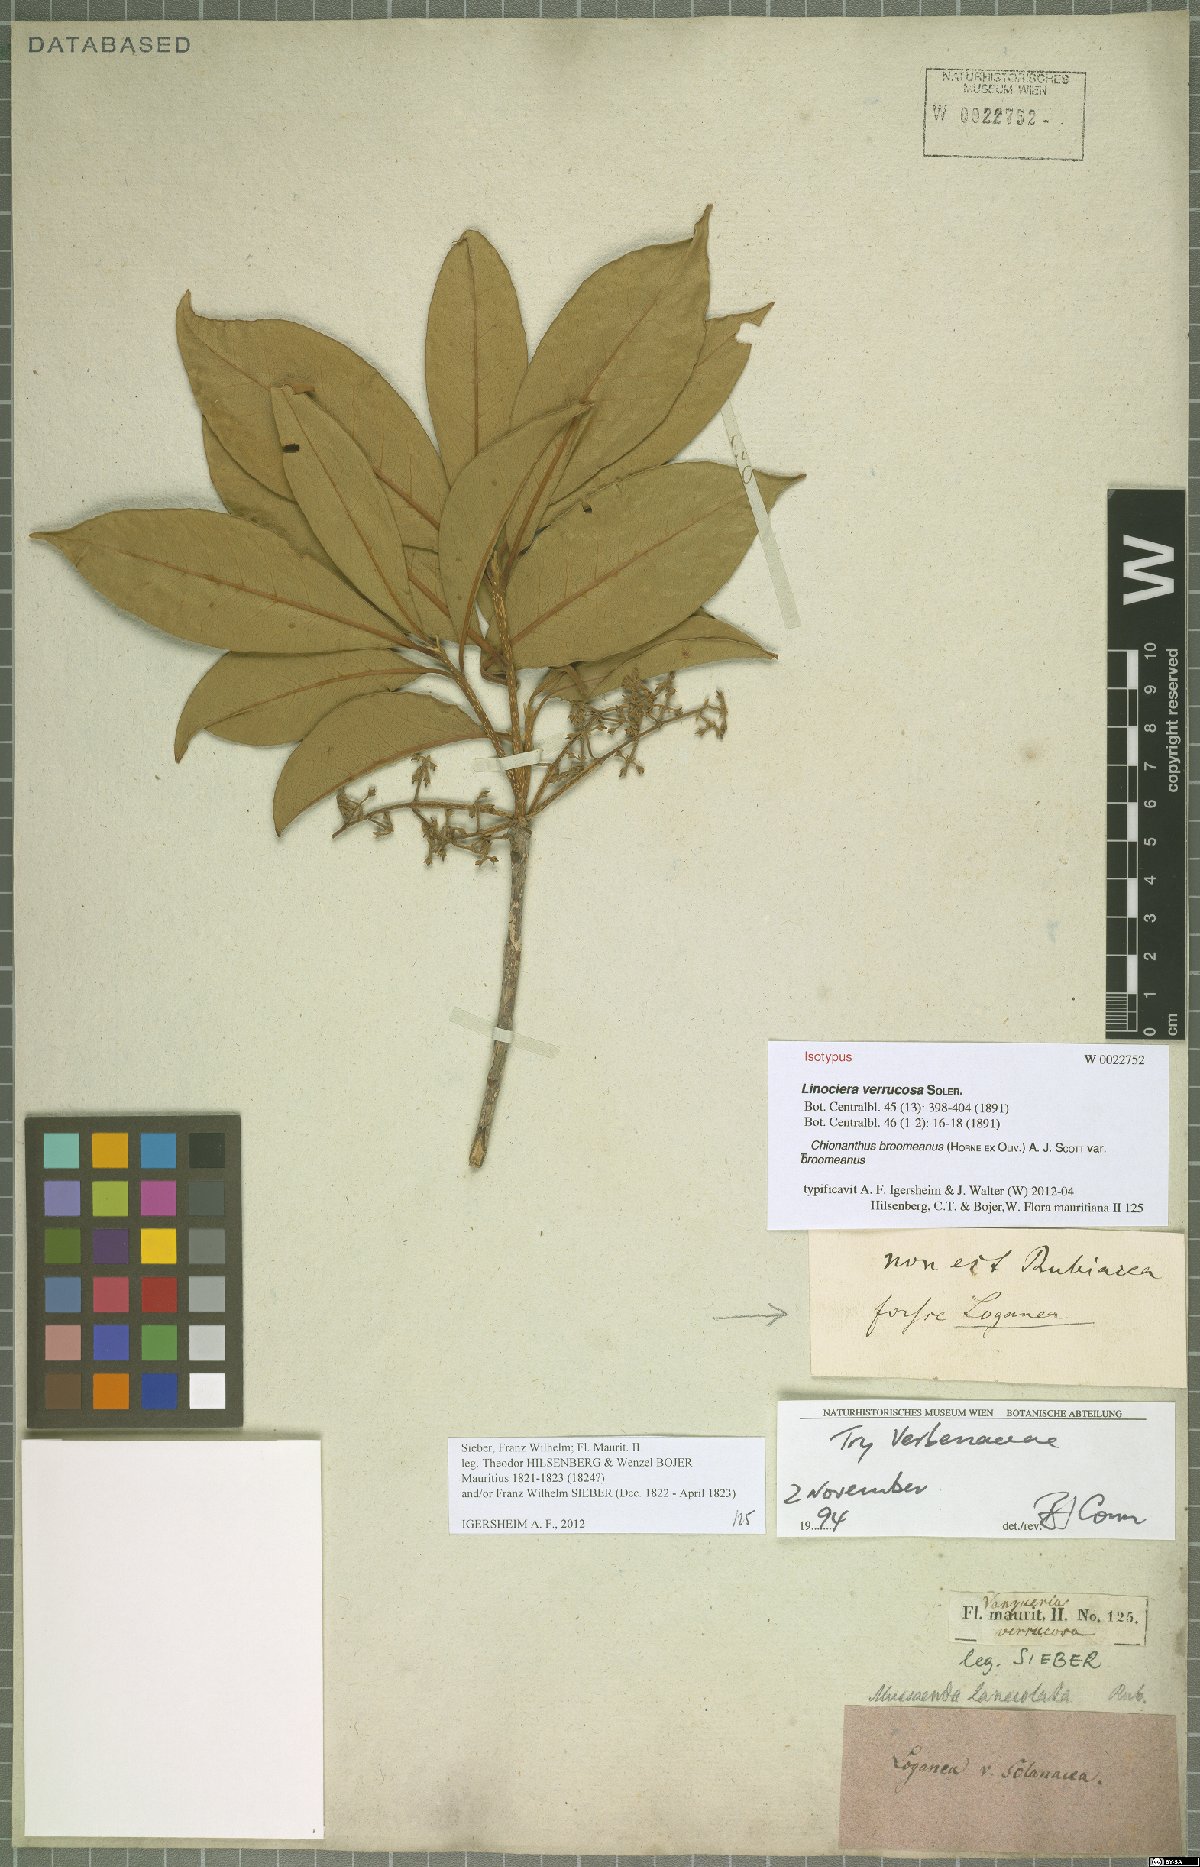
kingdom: Plantae
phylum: Tracheophyta
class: Magnoliopsida
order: Lamiales
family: Oleaceae
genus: Noronhia
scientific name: Noronhia broomeana
